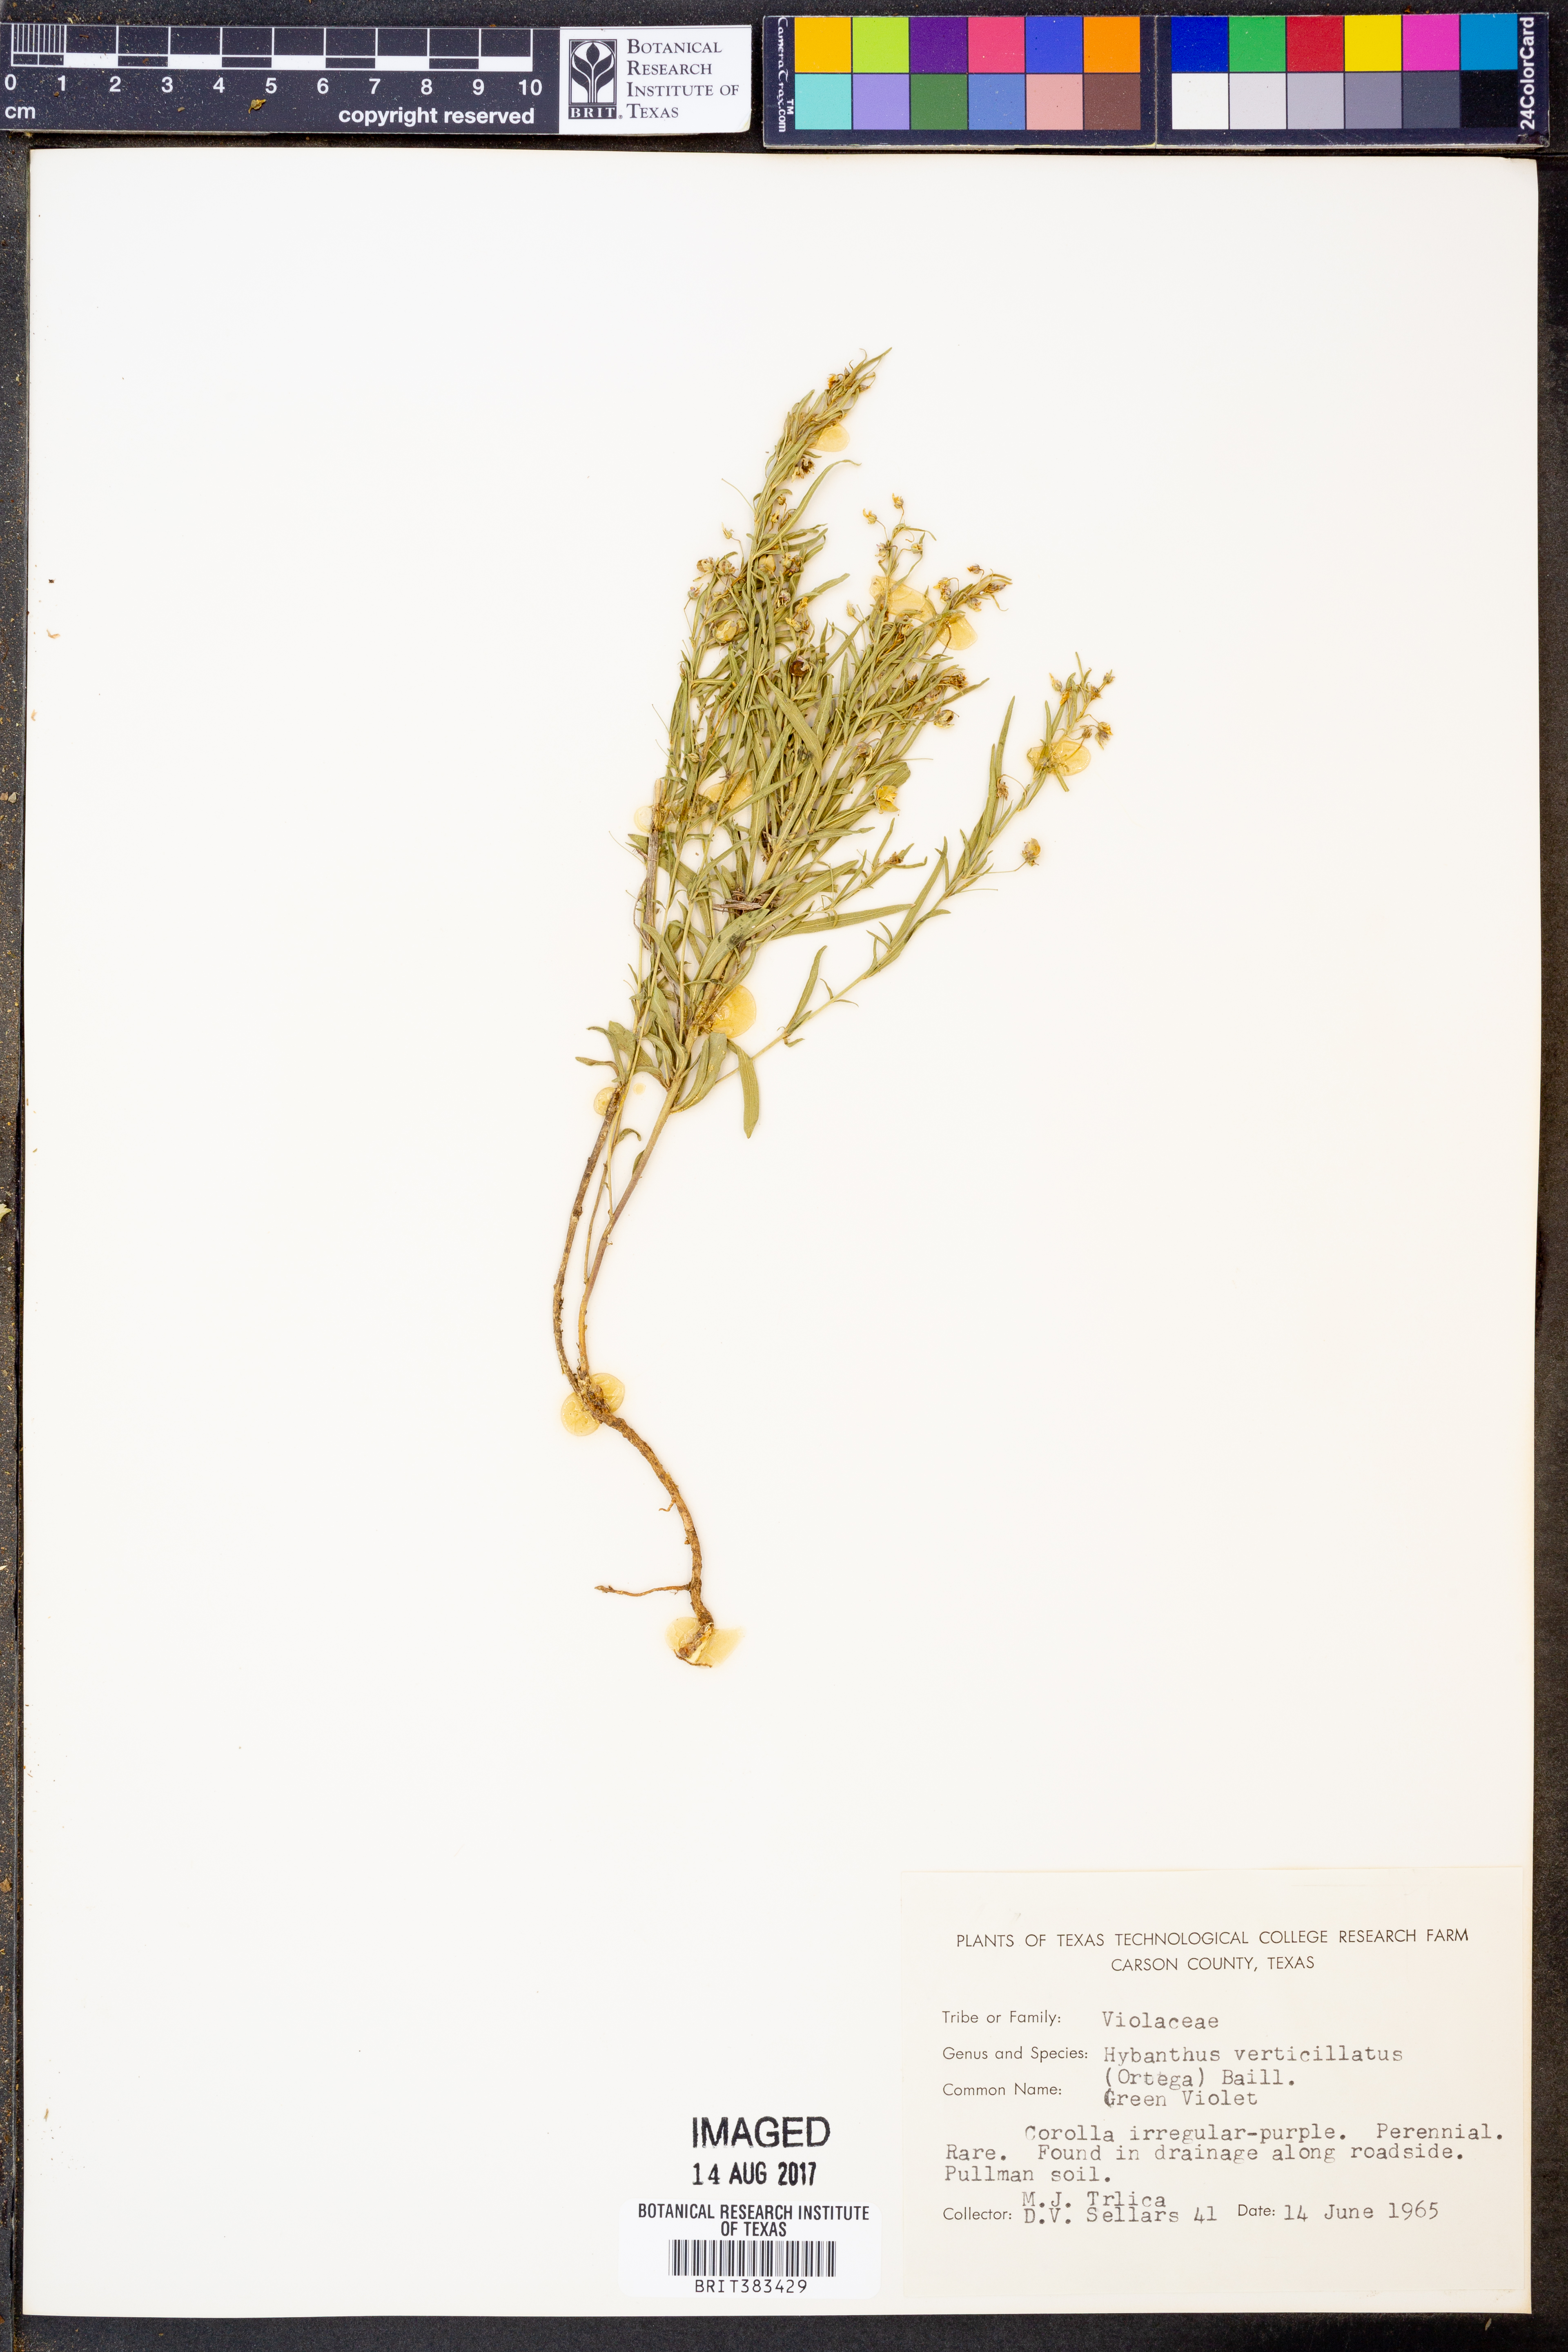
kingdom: Plantae
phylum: Tracheophyta
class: Magnoliopsida
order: Malpighiales
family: Violaceae
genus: Pombalia
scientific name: Pombalia verticillata
